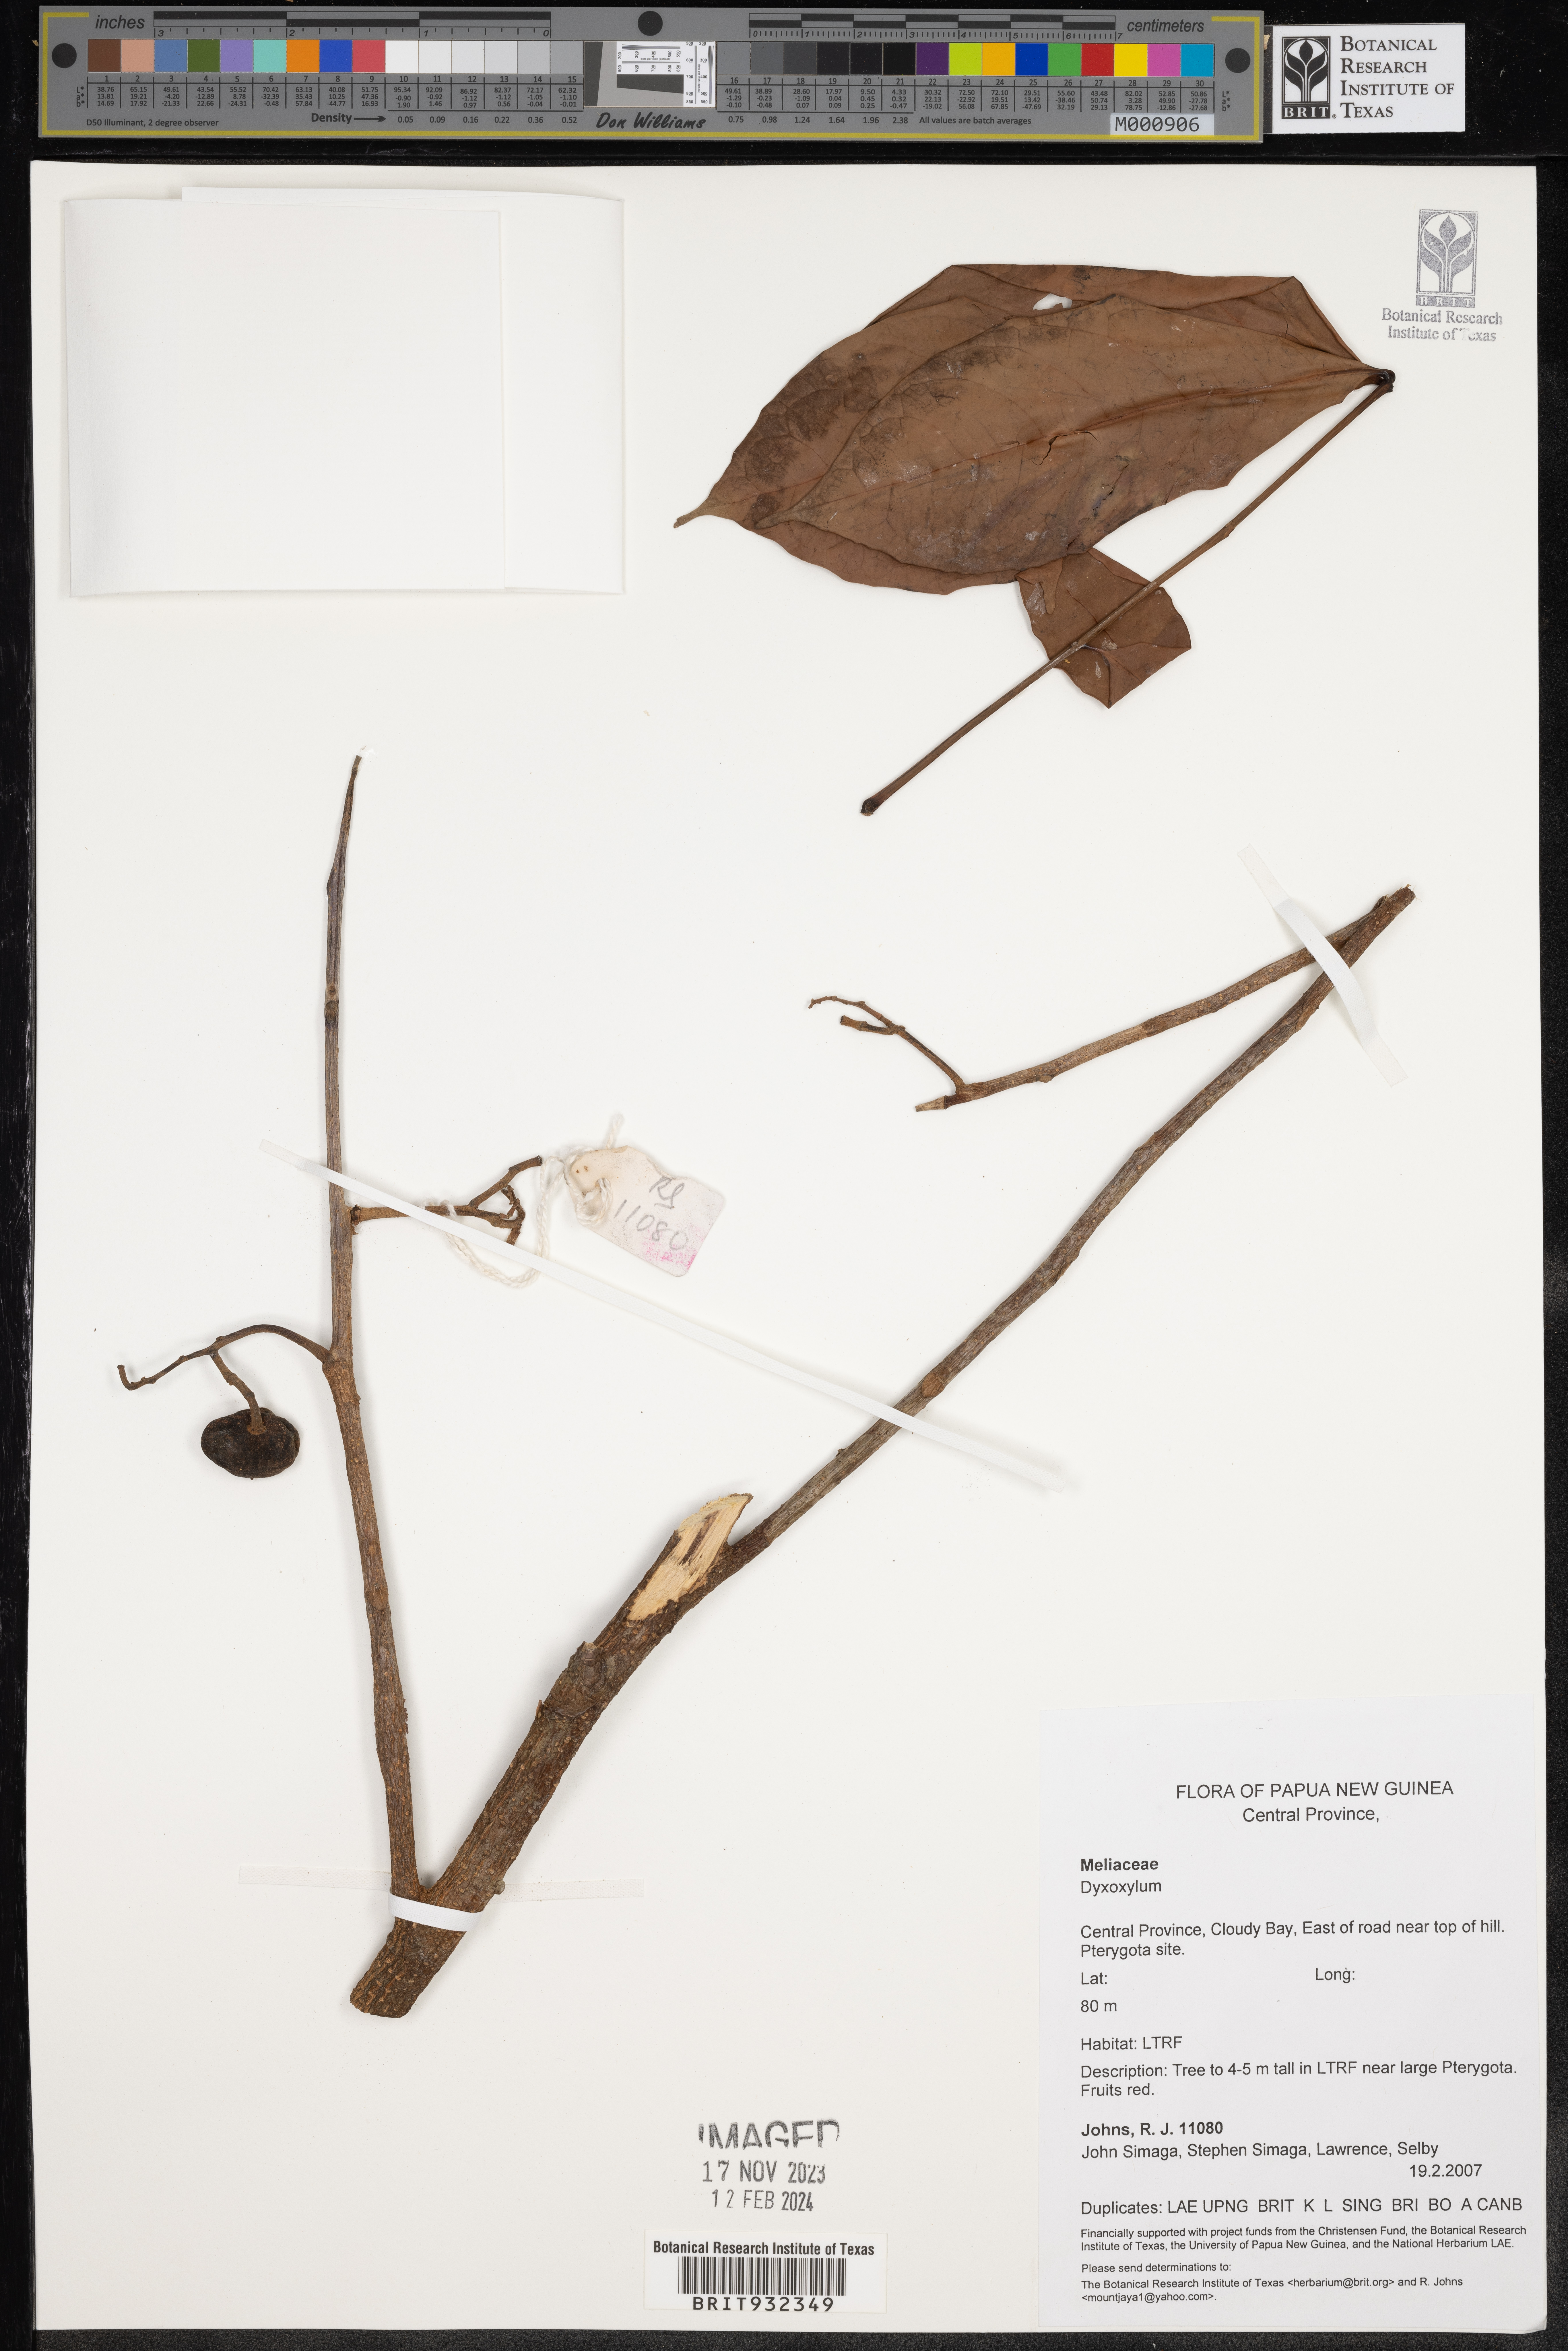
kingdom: Plantae
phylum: Tracheophyta
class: Magnoliopsida
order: Sapindales
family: Meliaceae
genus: Dysoxylum
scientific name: Dysoxylum
